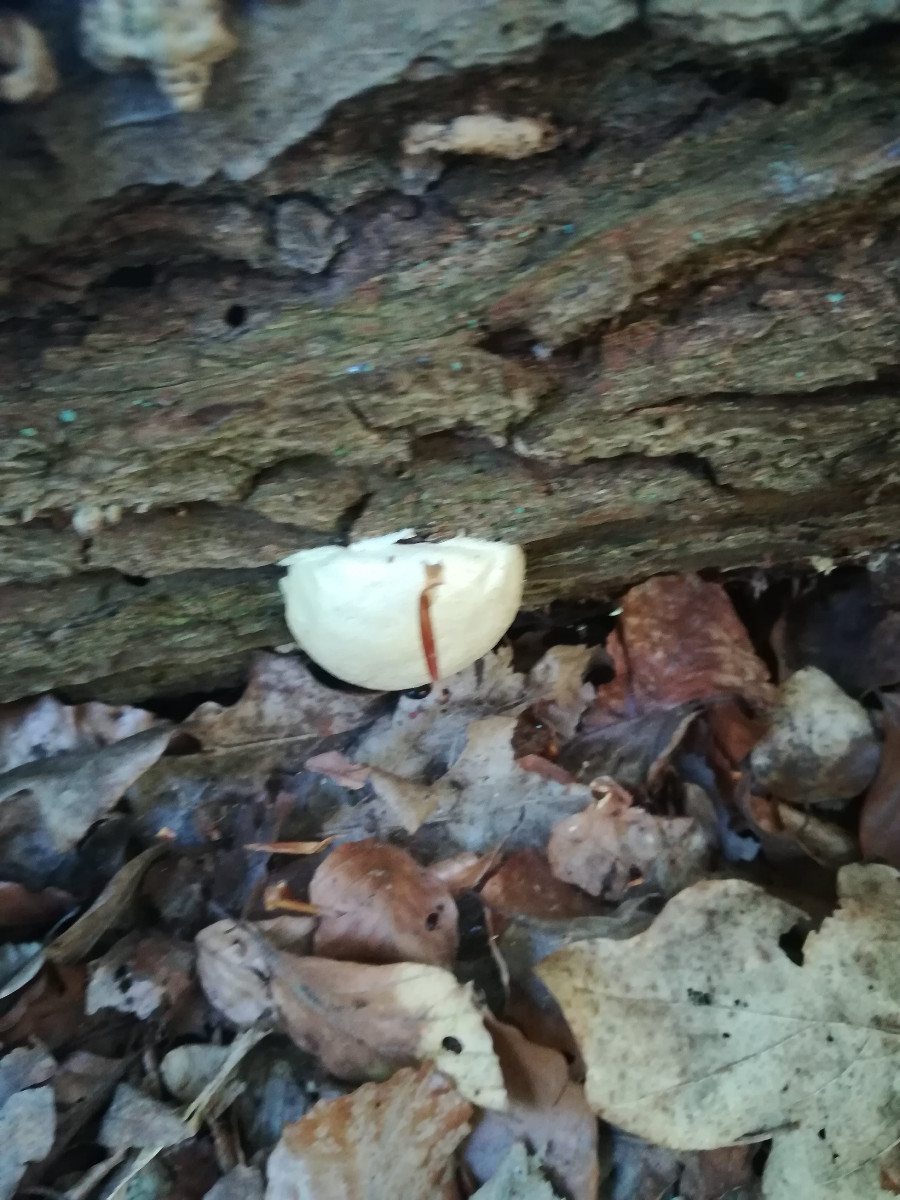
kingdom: Protozoa
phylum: Mycetozoa
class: Myxomycetes
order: Cribrariales
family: Tubiferaceae
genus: Reticularia
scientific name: Reticularia lycoperdon
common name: skinnende støvpude
